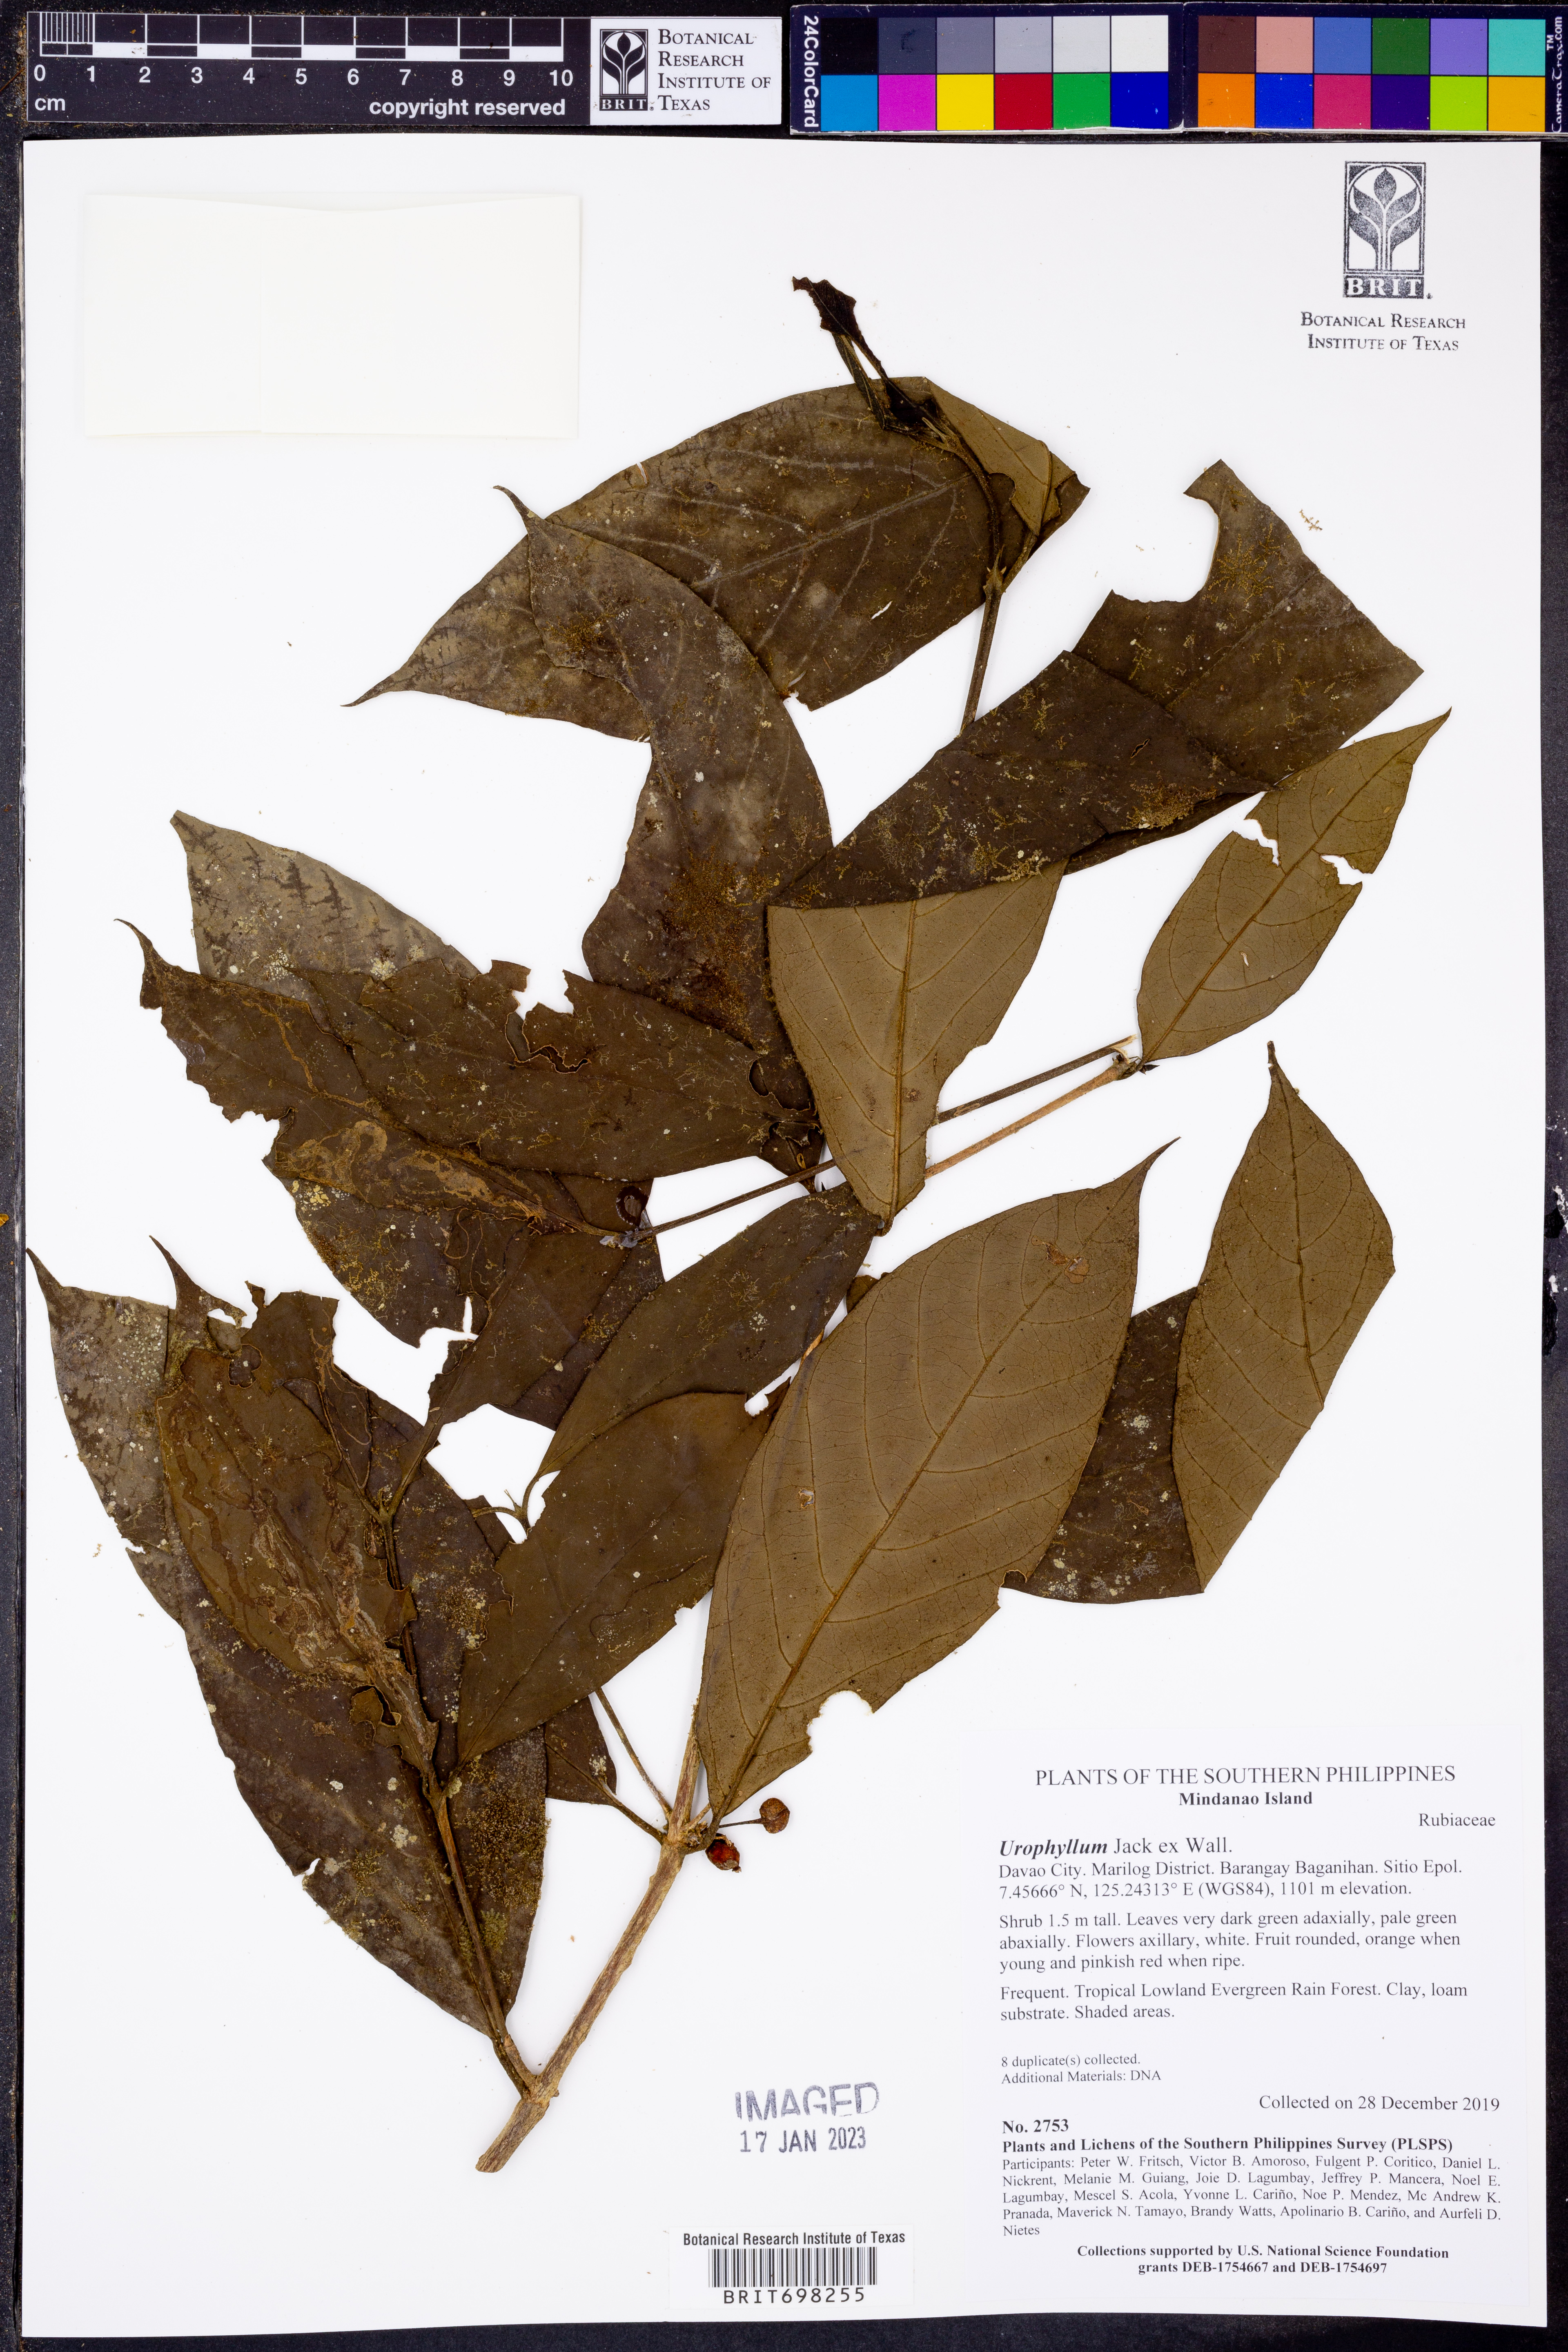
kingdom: Plantae
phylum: Tracheophyta
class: Magnoliopsida
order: Gentianales
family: Rubiaceae
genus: Urophyllum
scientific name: Urophyllum
